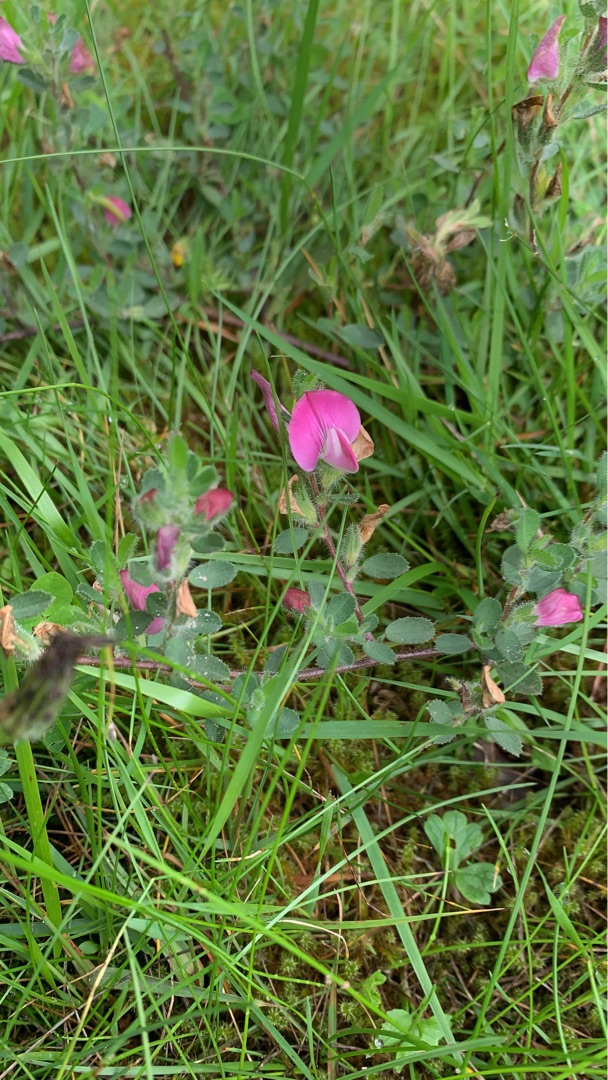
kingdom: Plantae
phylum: Tracheophyta
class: Magnoliopsida
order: Fabales
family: Fabaceae
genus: Ononis
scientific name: Ononis spinosa
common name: Mark-krageklo
